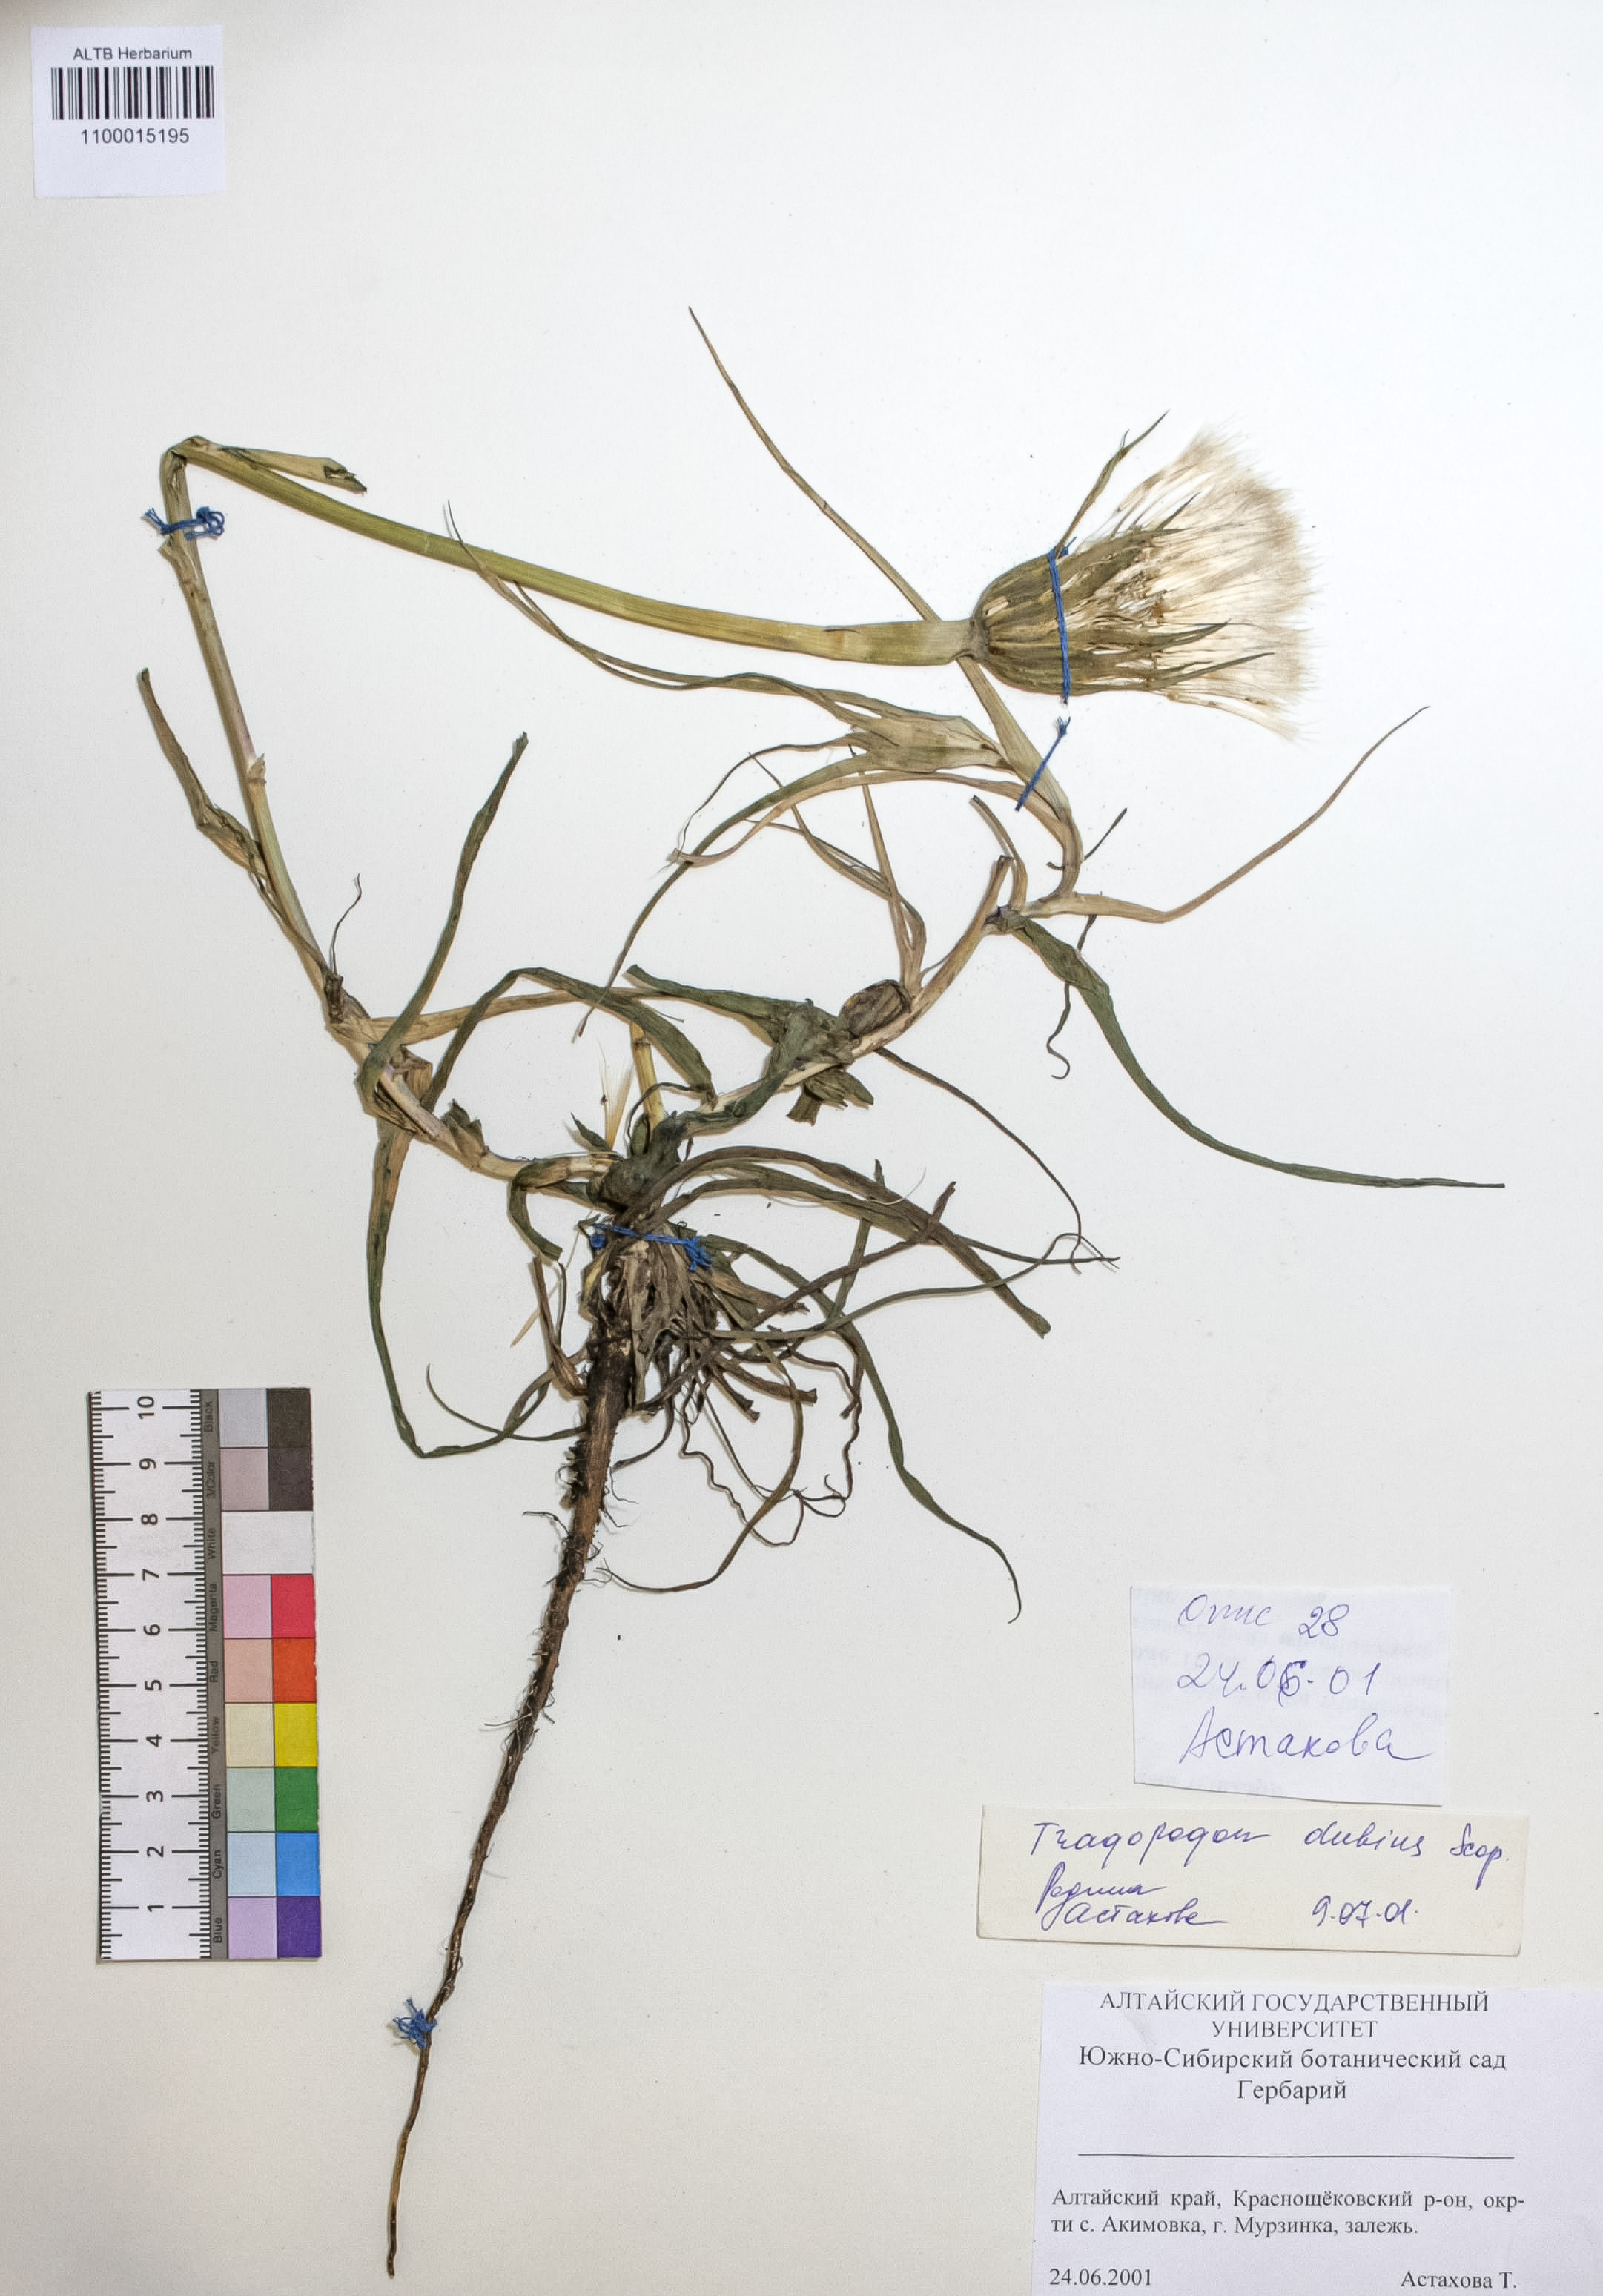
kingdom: Plantae
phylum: Tracheophyta
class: Magnoliopsida
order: Asterales
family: Asteraceae
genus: Tragopogon
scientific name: Tragopogon dubius
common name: Yellow salsify
